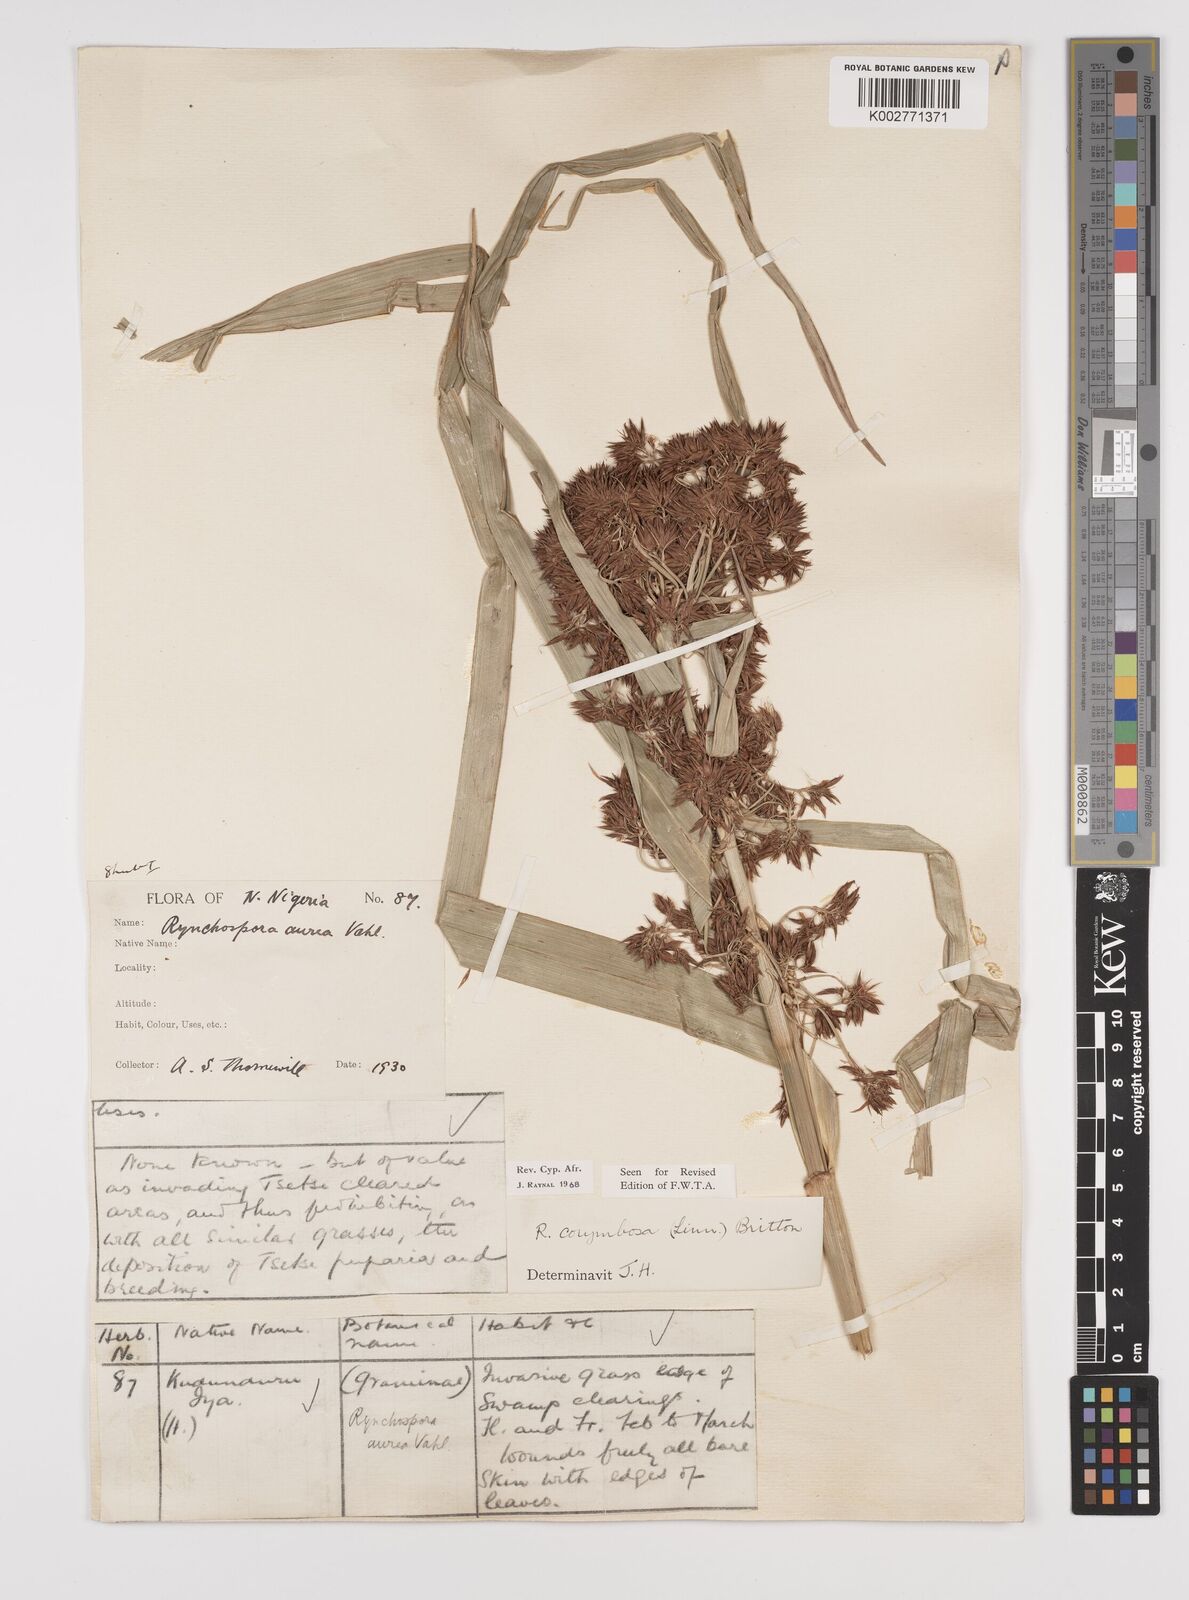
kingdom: Plantae
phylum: Tracheophyta
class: Liliopsida
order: Poales
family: Cyperaceae
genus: Rhynchospora
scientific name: Rhynchospora corymbosa
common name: Golden beak sedge
